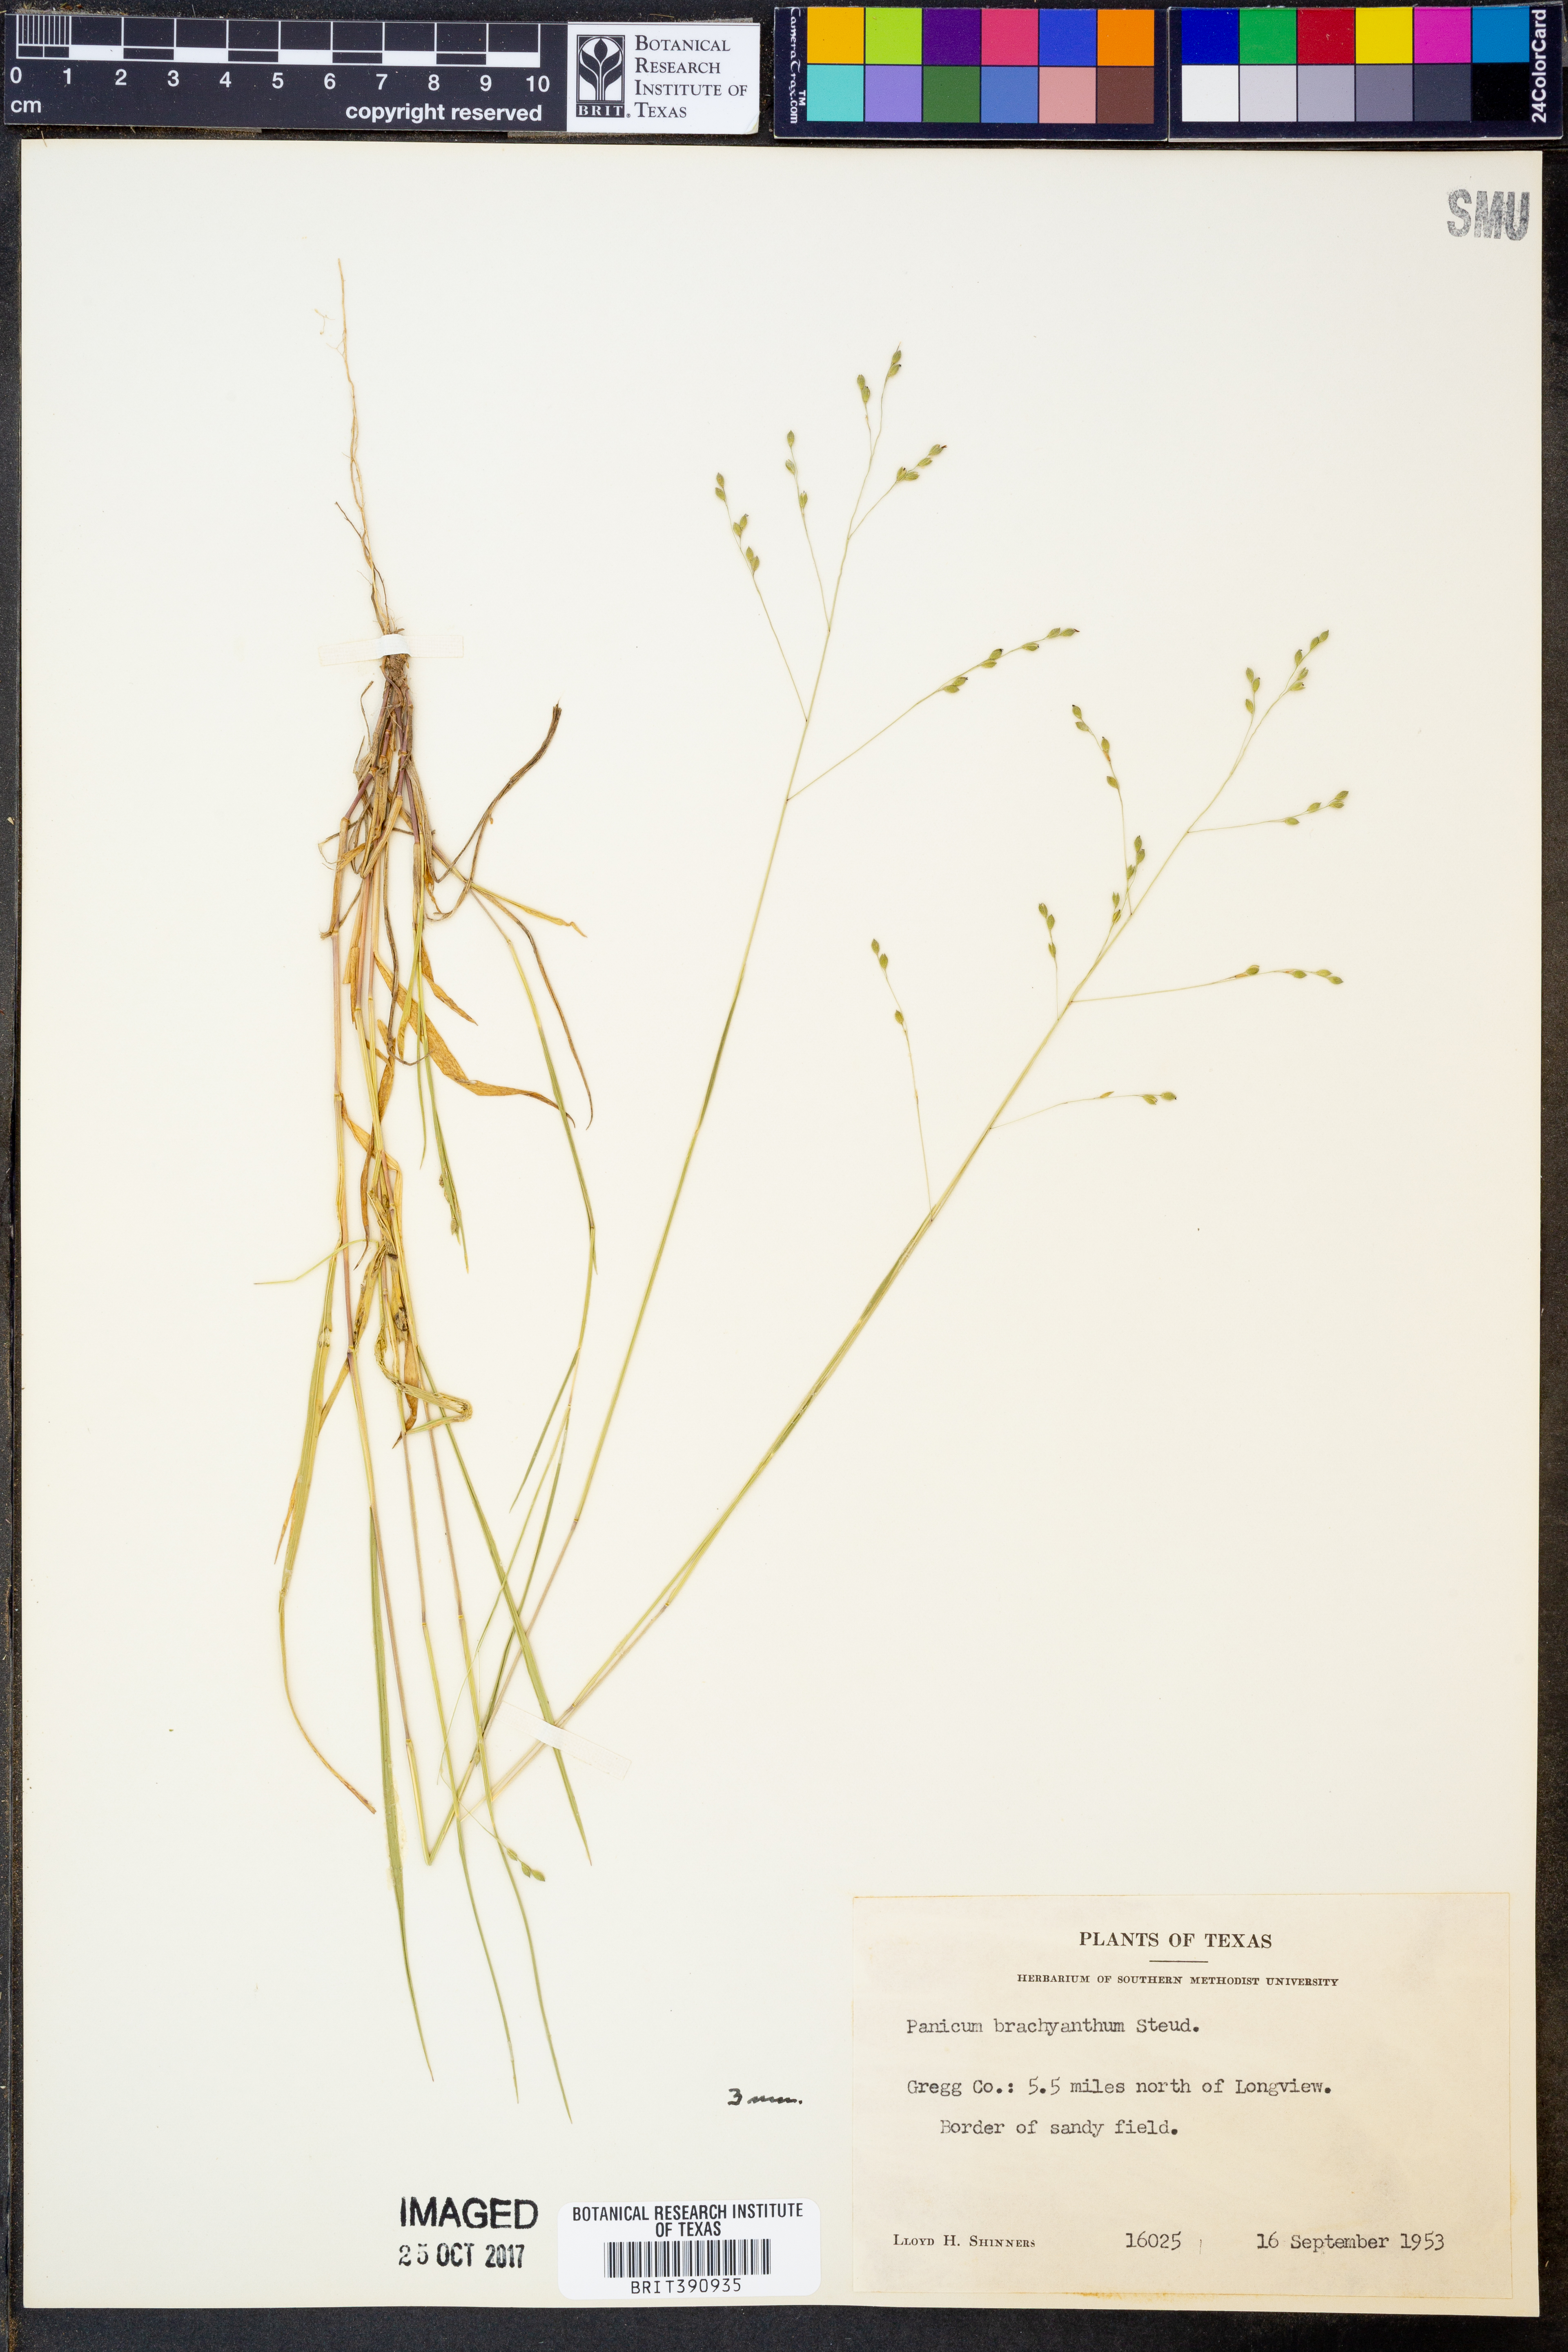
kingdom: Plantae
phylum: Tracheophyta
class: Liliopsida
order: Poales
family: Poaceae
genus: Kellochloa
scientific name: Kellochloa brachyantha
